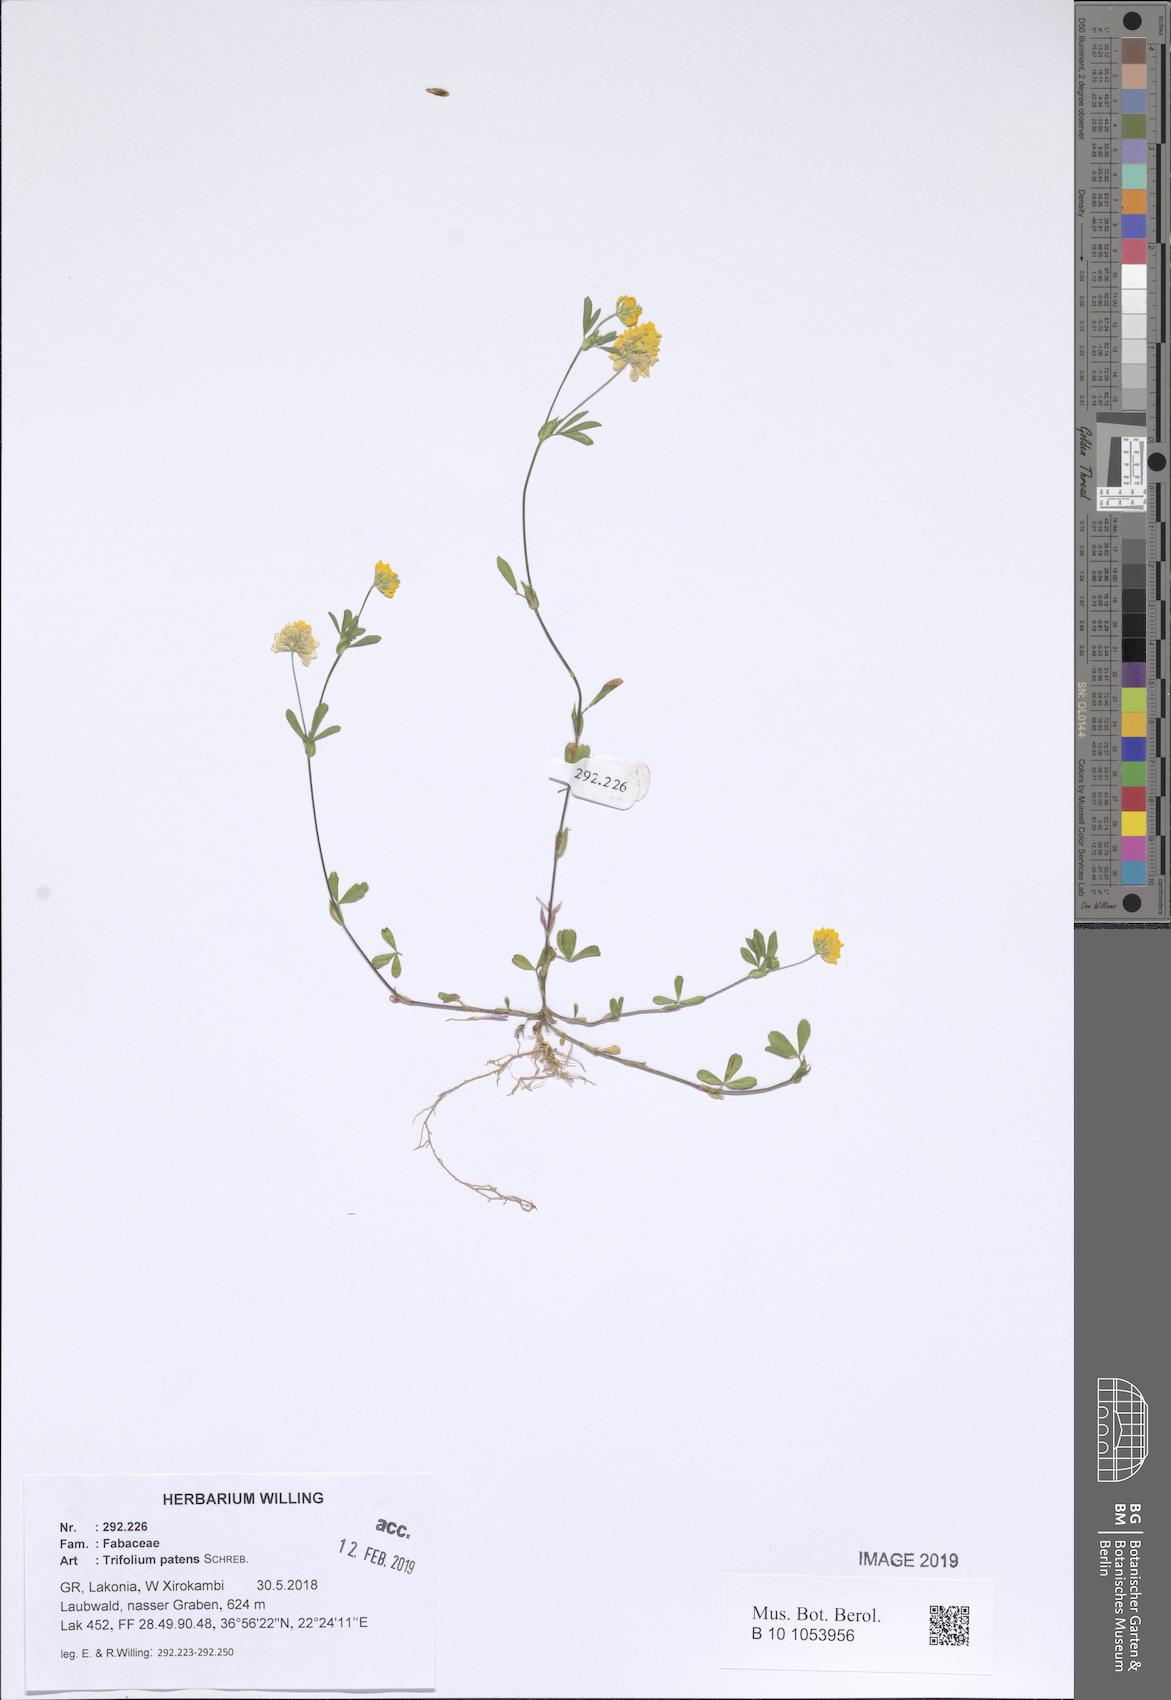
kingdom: Plantae
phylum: Tracheophyta
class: Magnoliopsida
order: Fabales
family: Fabaceae
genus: Trifolium
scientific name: Trifolium patens
